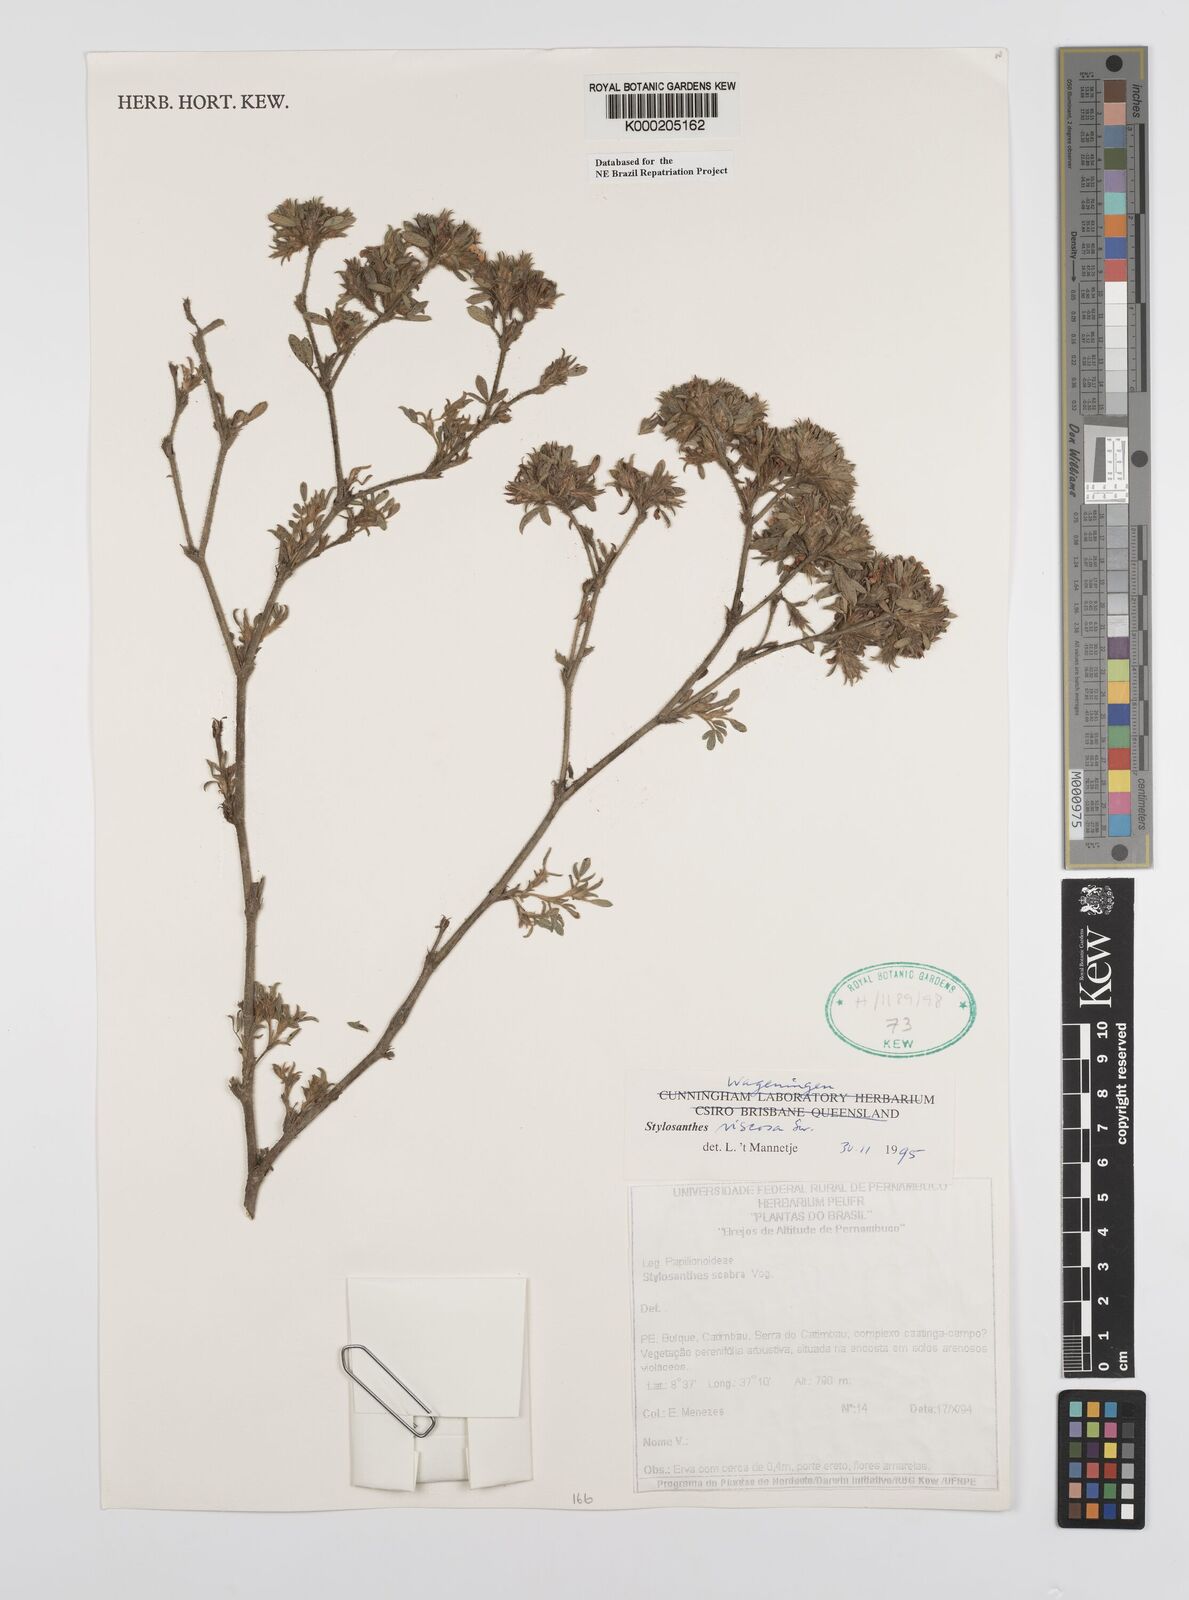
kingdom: Plantae
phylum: Tracheophyta
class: Magnoliopsida
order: Fabales
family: Fabaceae
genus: Stylosanthes
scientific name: Stylosanthes viscosa
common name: Viscid pencil-flower
